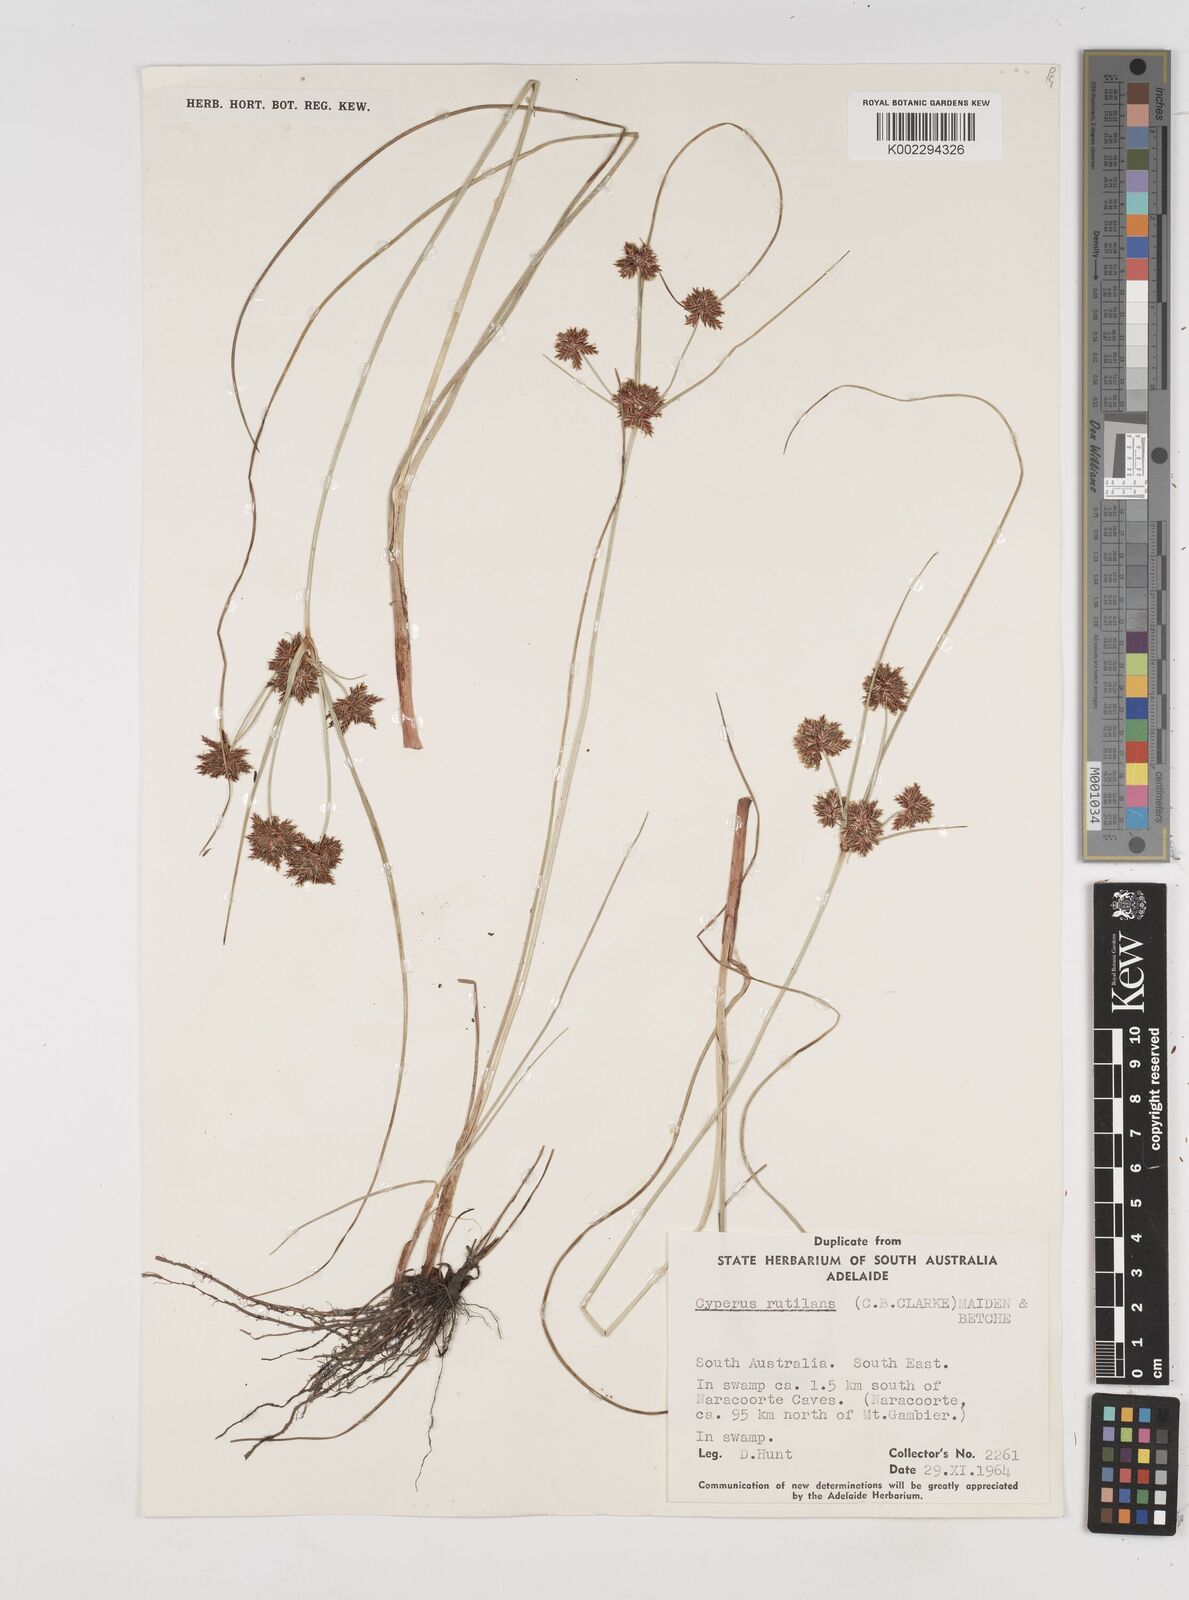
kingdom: Plantae
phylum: Tracheophyta
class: Liliopsida
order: Poales
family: Cyperaceae
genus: Cyperus
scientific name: Cyperus lhotskyanus
